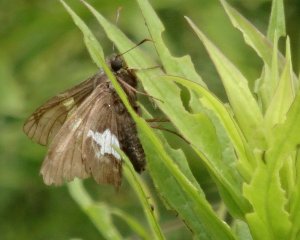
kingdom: Animalia
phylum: Arthropoda
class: Insecta
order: Lepidoptera
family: Hesperiidae
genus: Epargyreus
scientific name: Epargyreus clarus
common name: Silver-spotted Skipper
